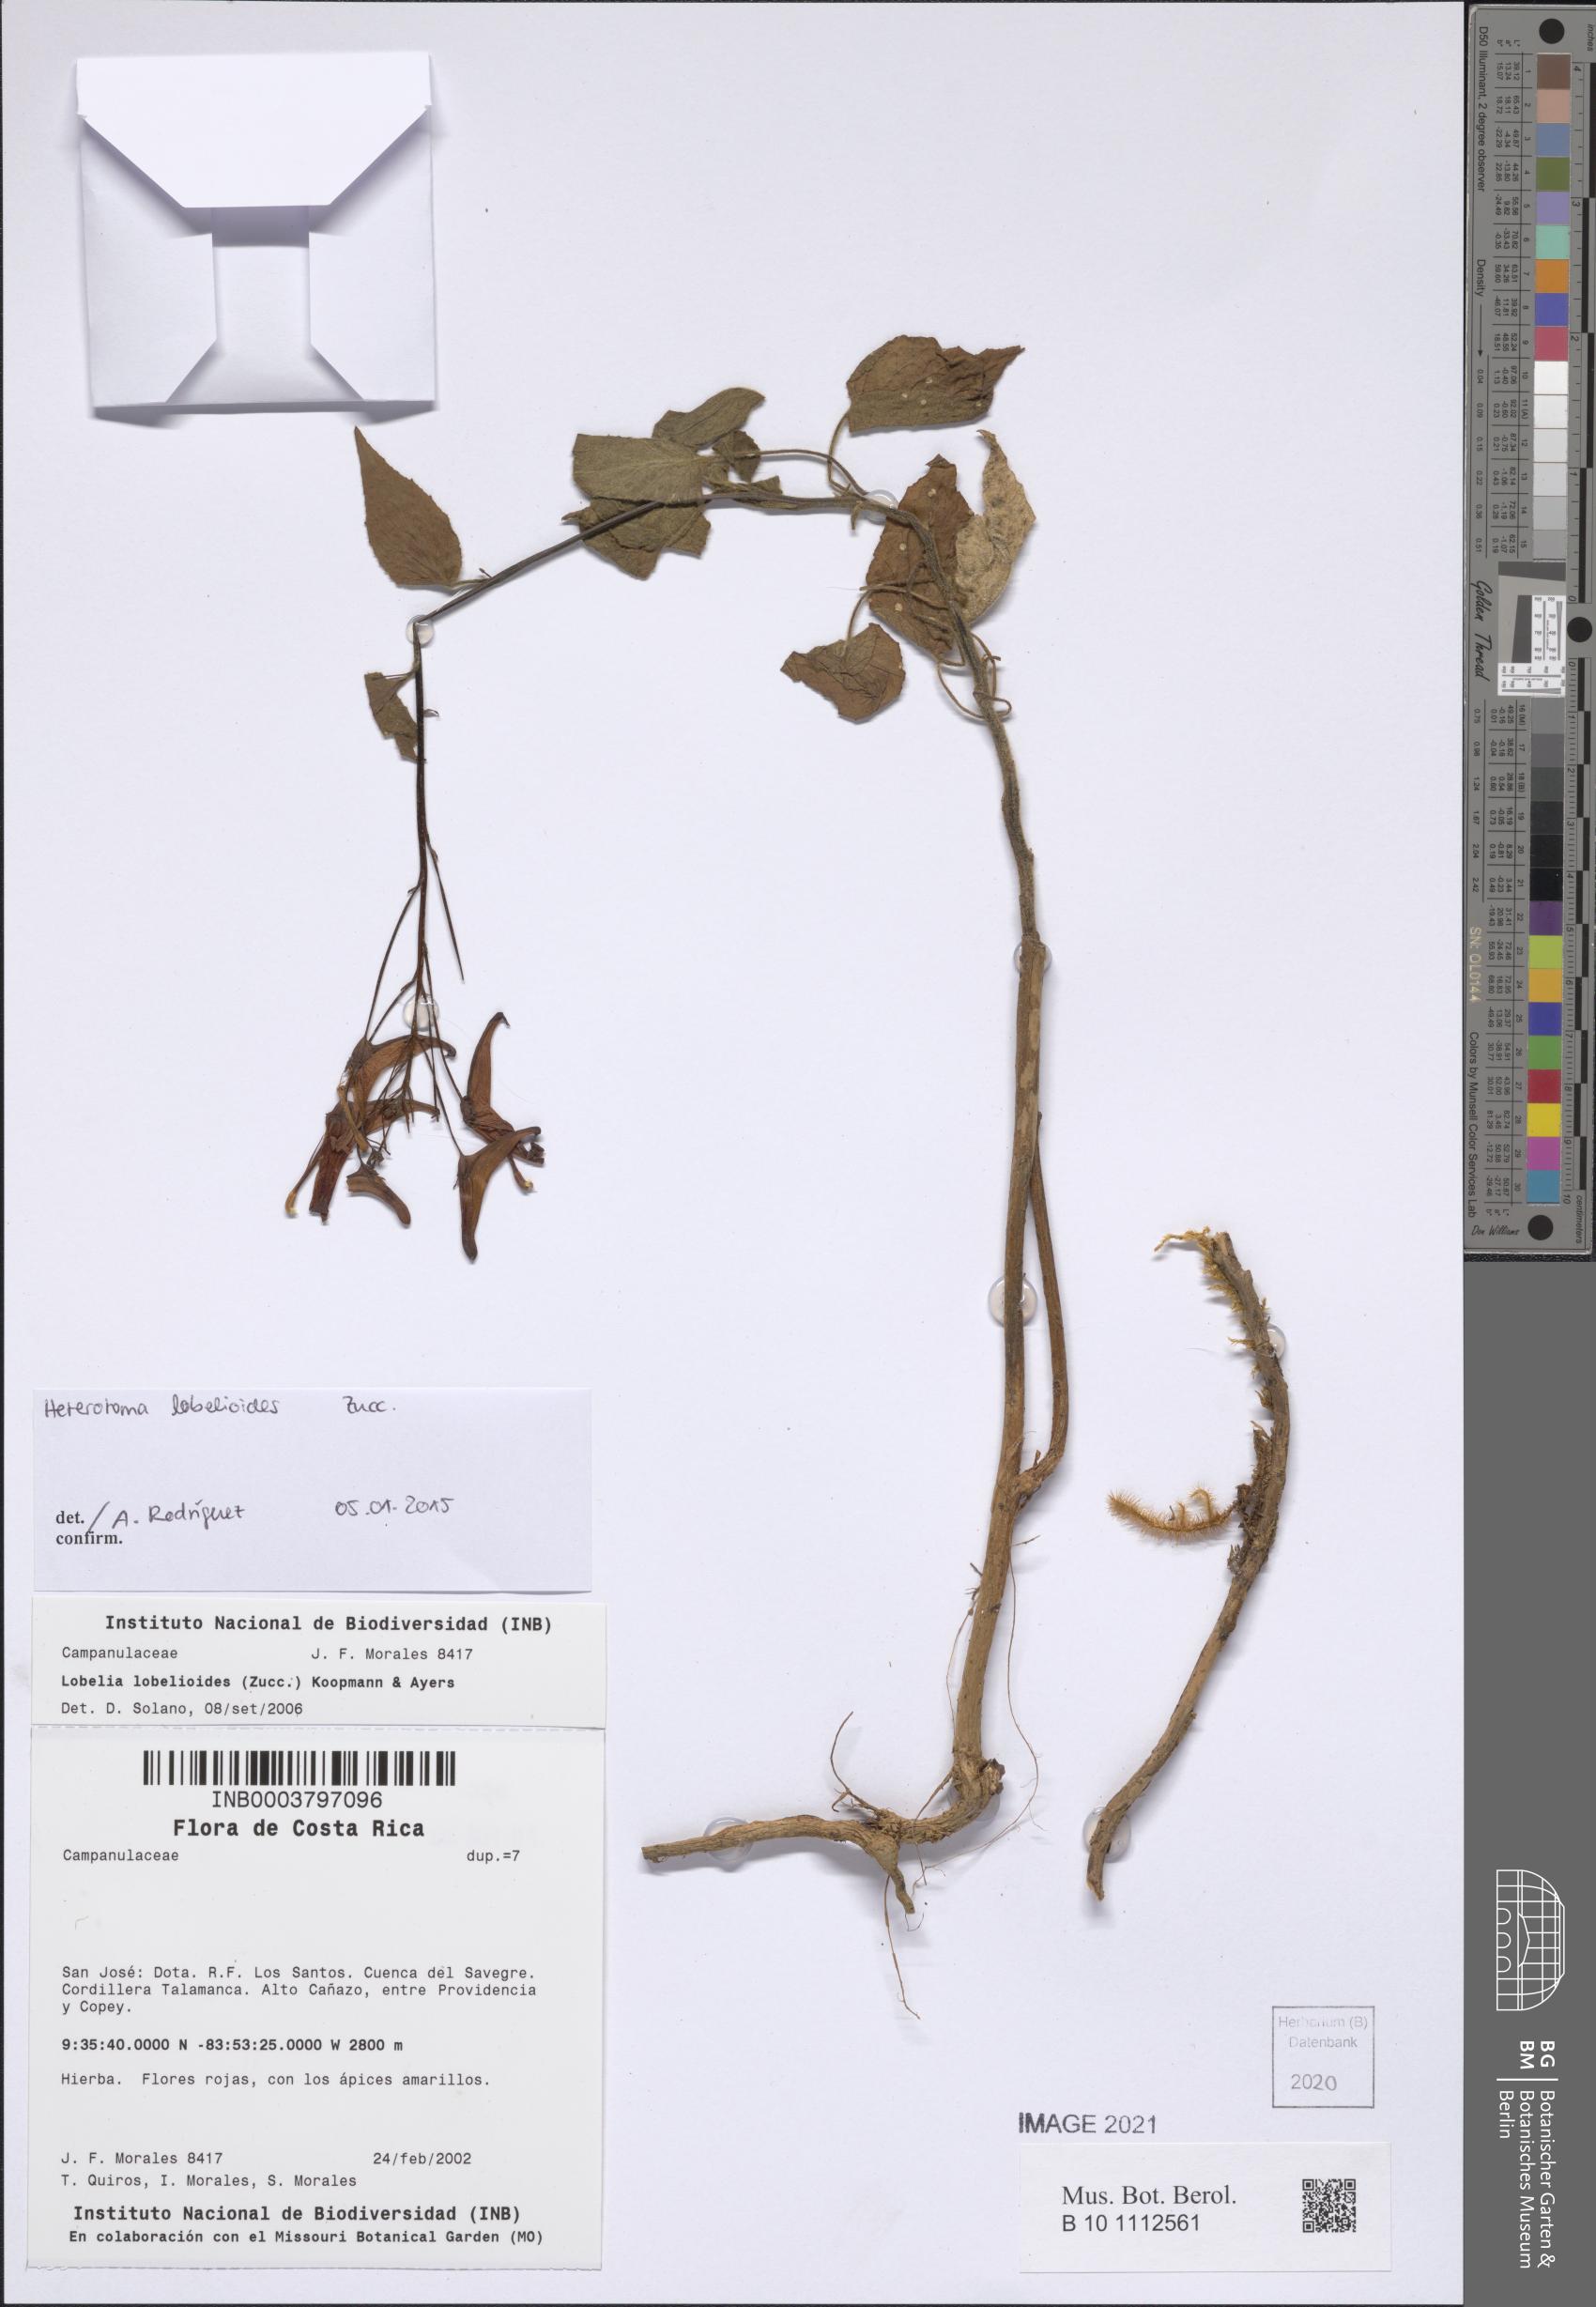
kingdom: Plantae
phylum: Tracheophyta
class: Liliopsida
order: Poales
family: Poaceae
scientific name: Poaceae
